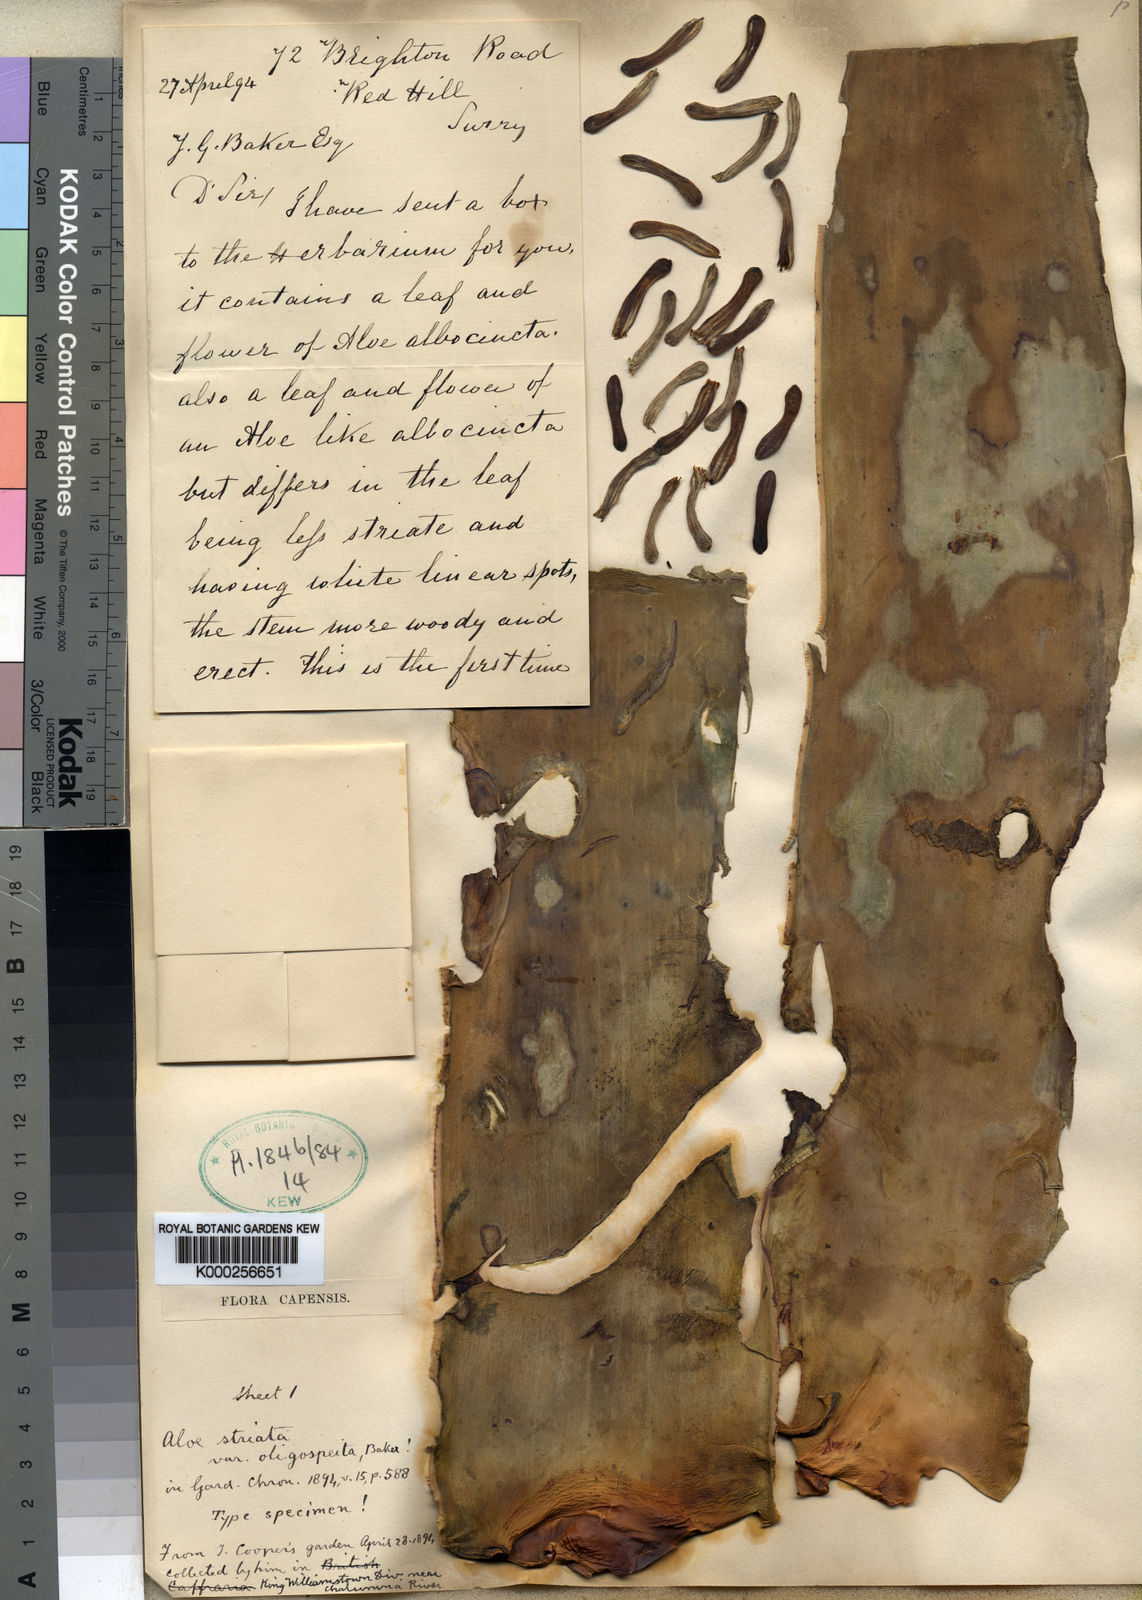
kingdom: Plantae
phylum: Tracheophyta
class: Liliopsida
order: Asparagales
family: Asphodelaceae
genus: Aloe
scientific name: Aloe striata
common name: Coral aloe
